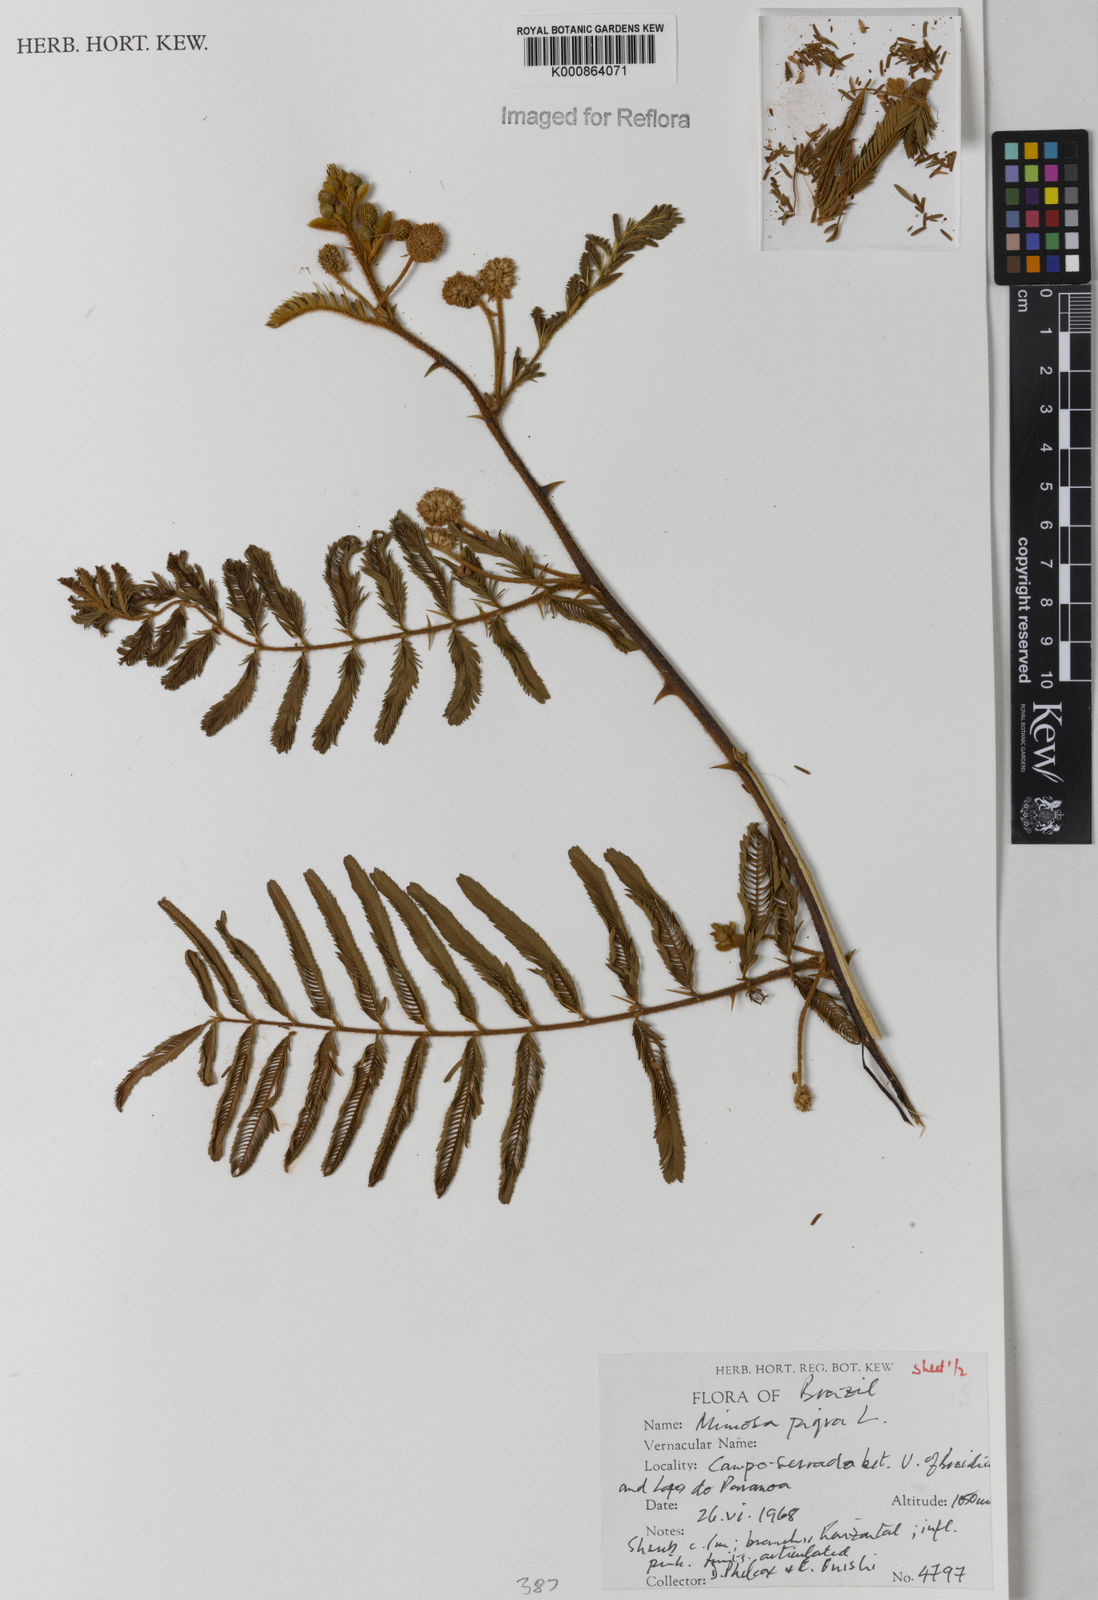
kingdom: Plantae
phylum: Tracheophyta
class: Magnoliopsida
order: Fabales
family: Fabaceae
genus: Mimosa
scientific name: Mimosa pigra
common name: Black mimosa
